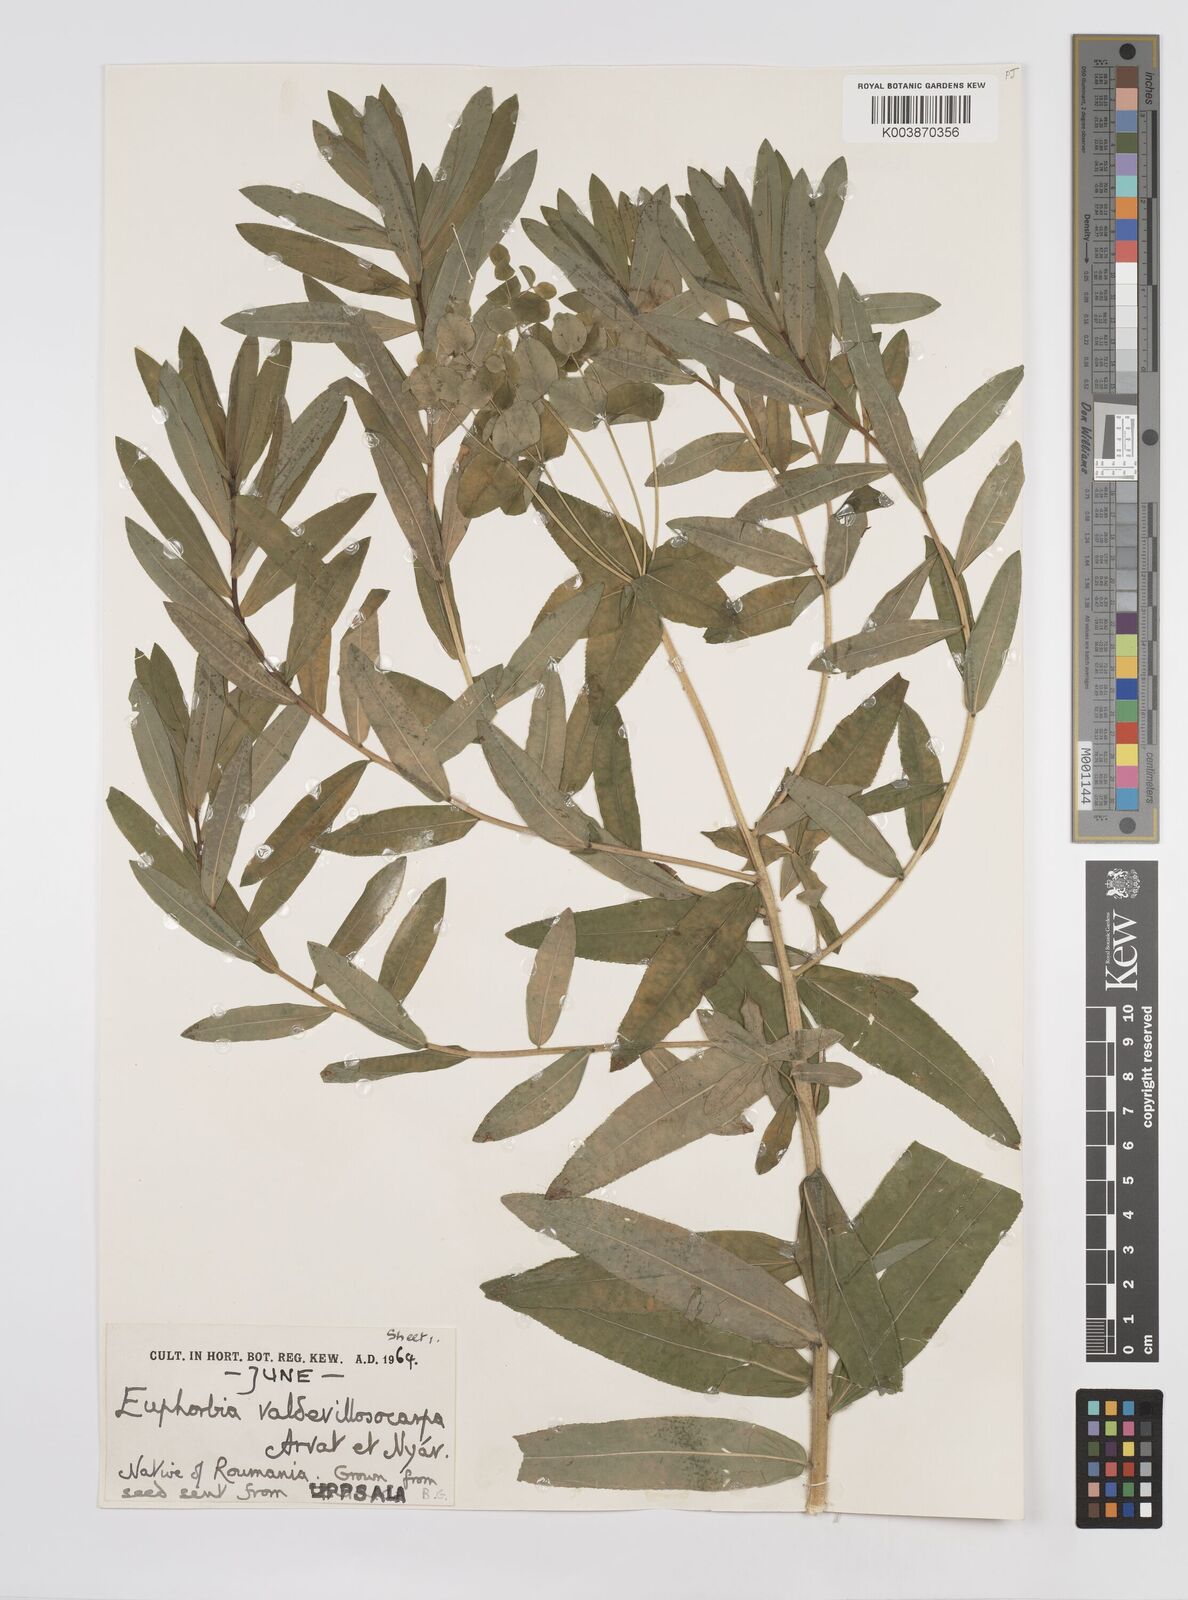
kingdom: Plantae
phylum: Tracheophyta
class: Magnoliopsida
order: Malpighiales
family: Euphorbiaceae
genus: Euphorbia
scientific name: Euphorbia valdevillosocarpa
